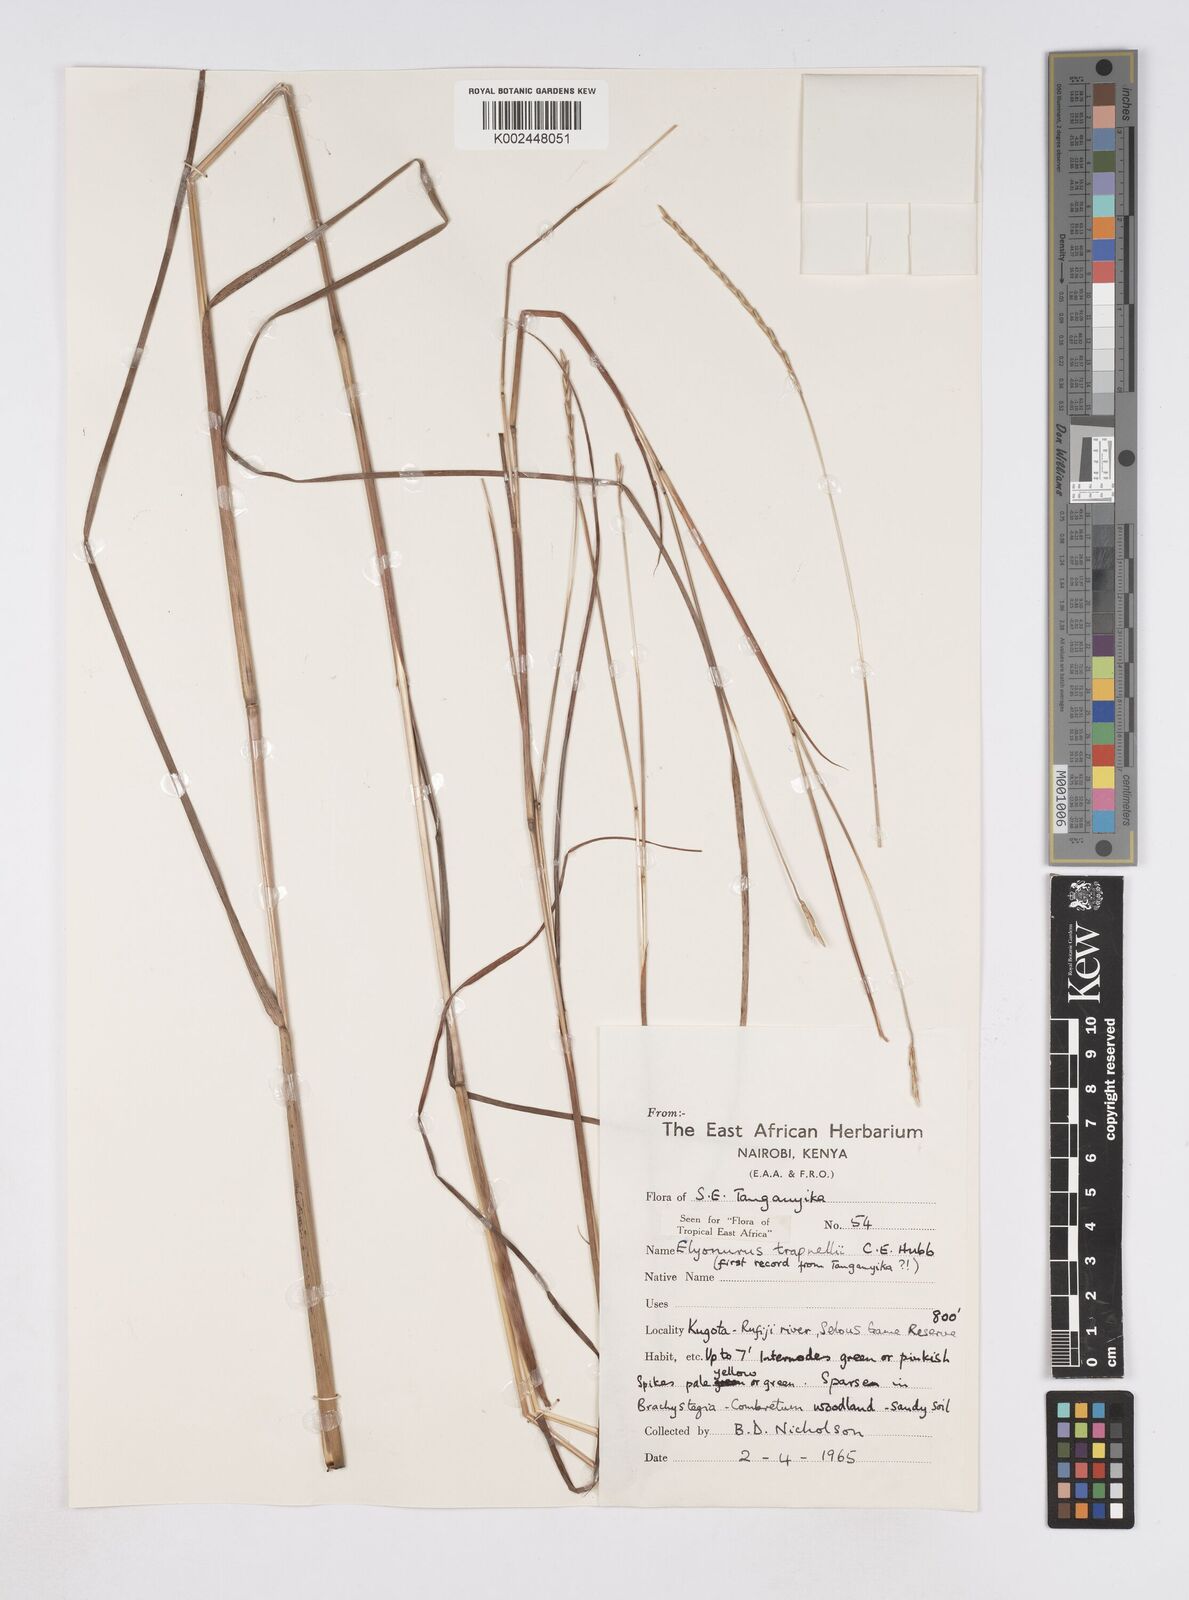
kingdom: Plantae
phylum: Tracheophyta
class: Liliopsida
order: Poales
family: Poaceae
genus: Elionurus
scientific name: Elionurus tripsacoides
